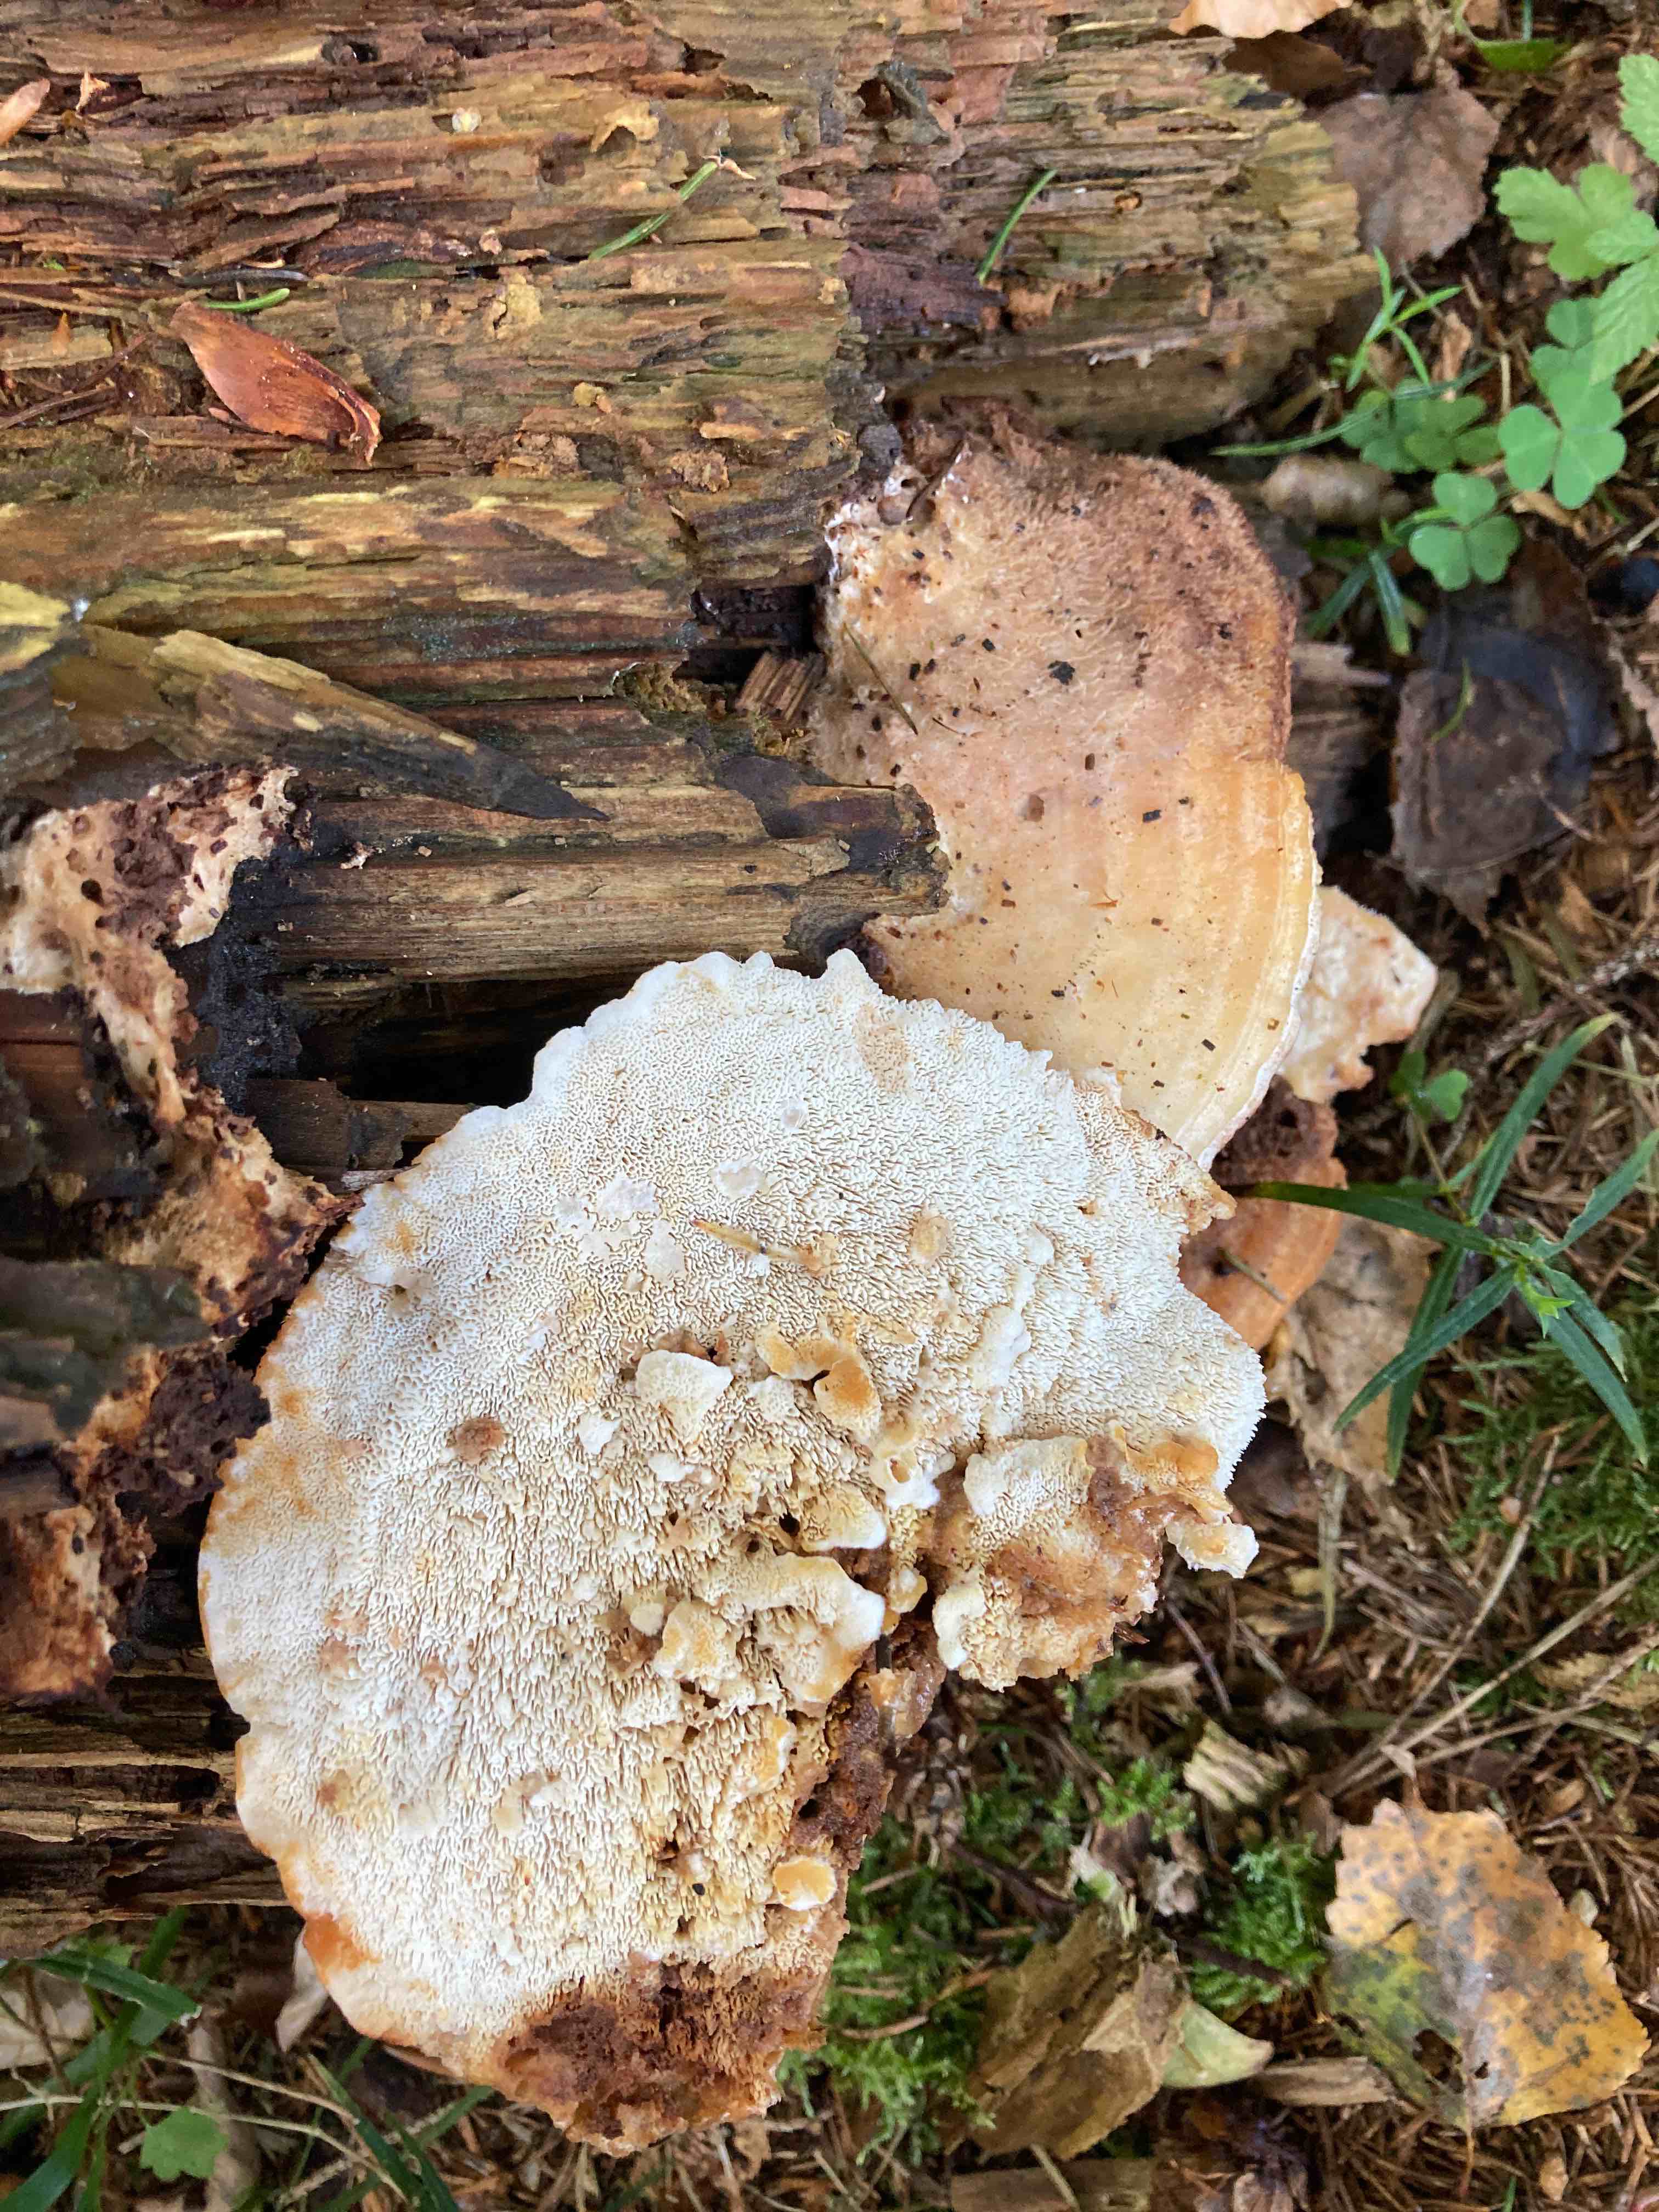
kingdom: Fungi
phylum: Basidiomycota
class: Agaricomycetes
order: Polyporales
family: Fomitopsidaceae
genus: Climacocystis
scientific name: Climacocystis borealis
